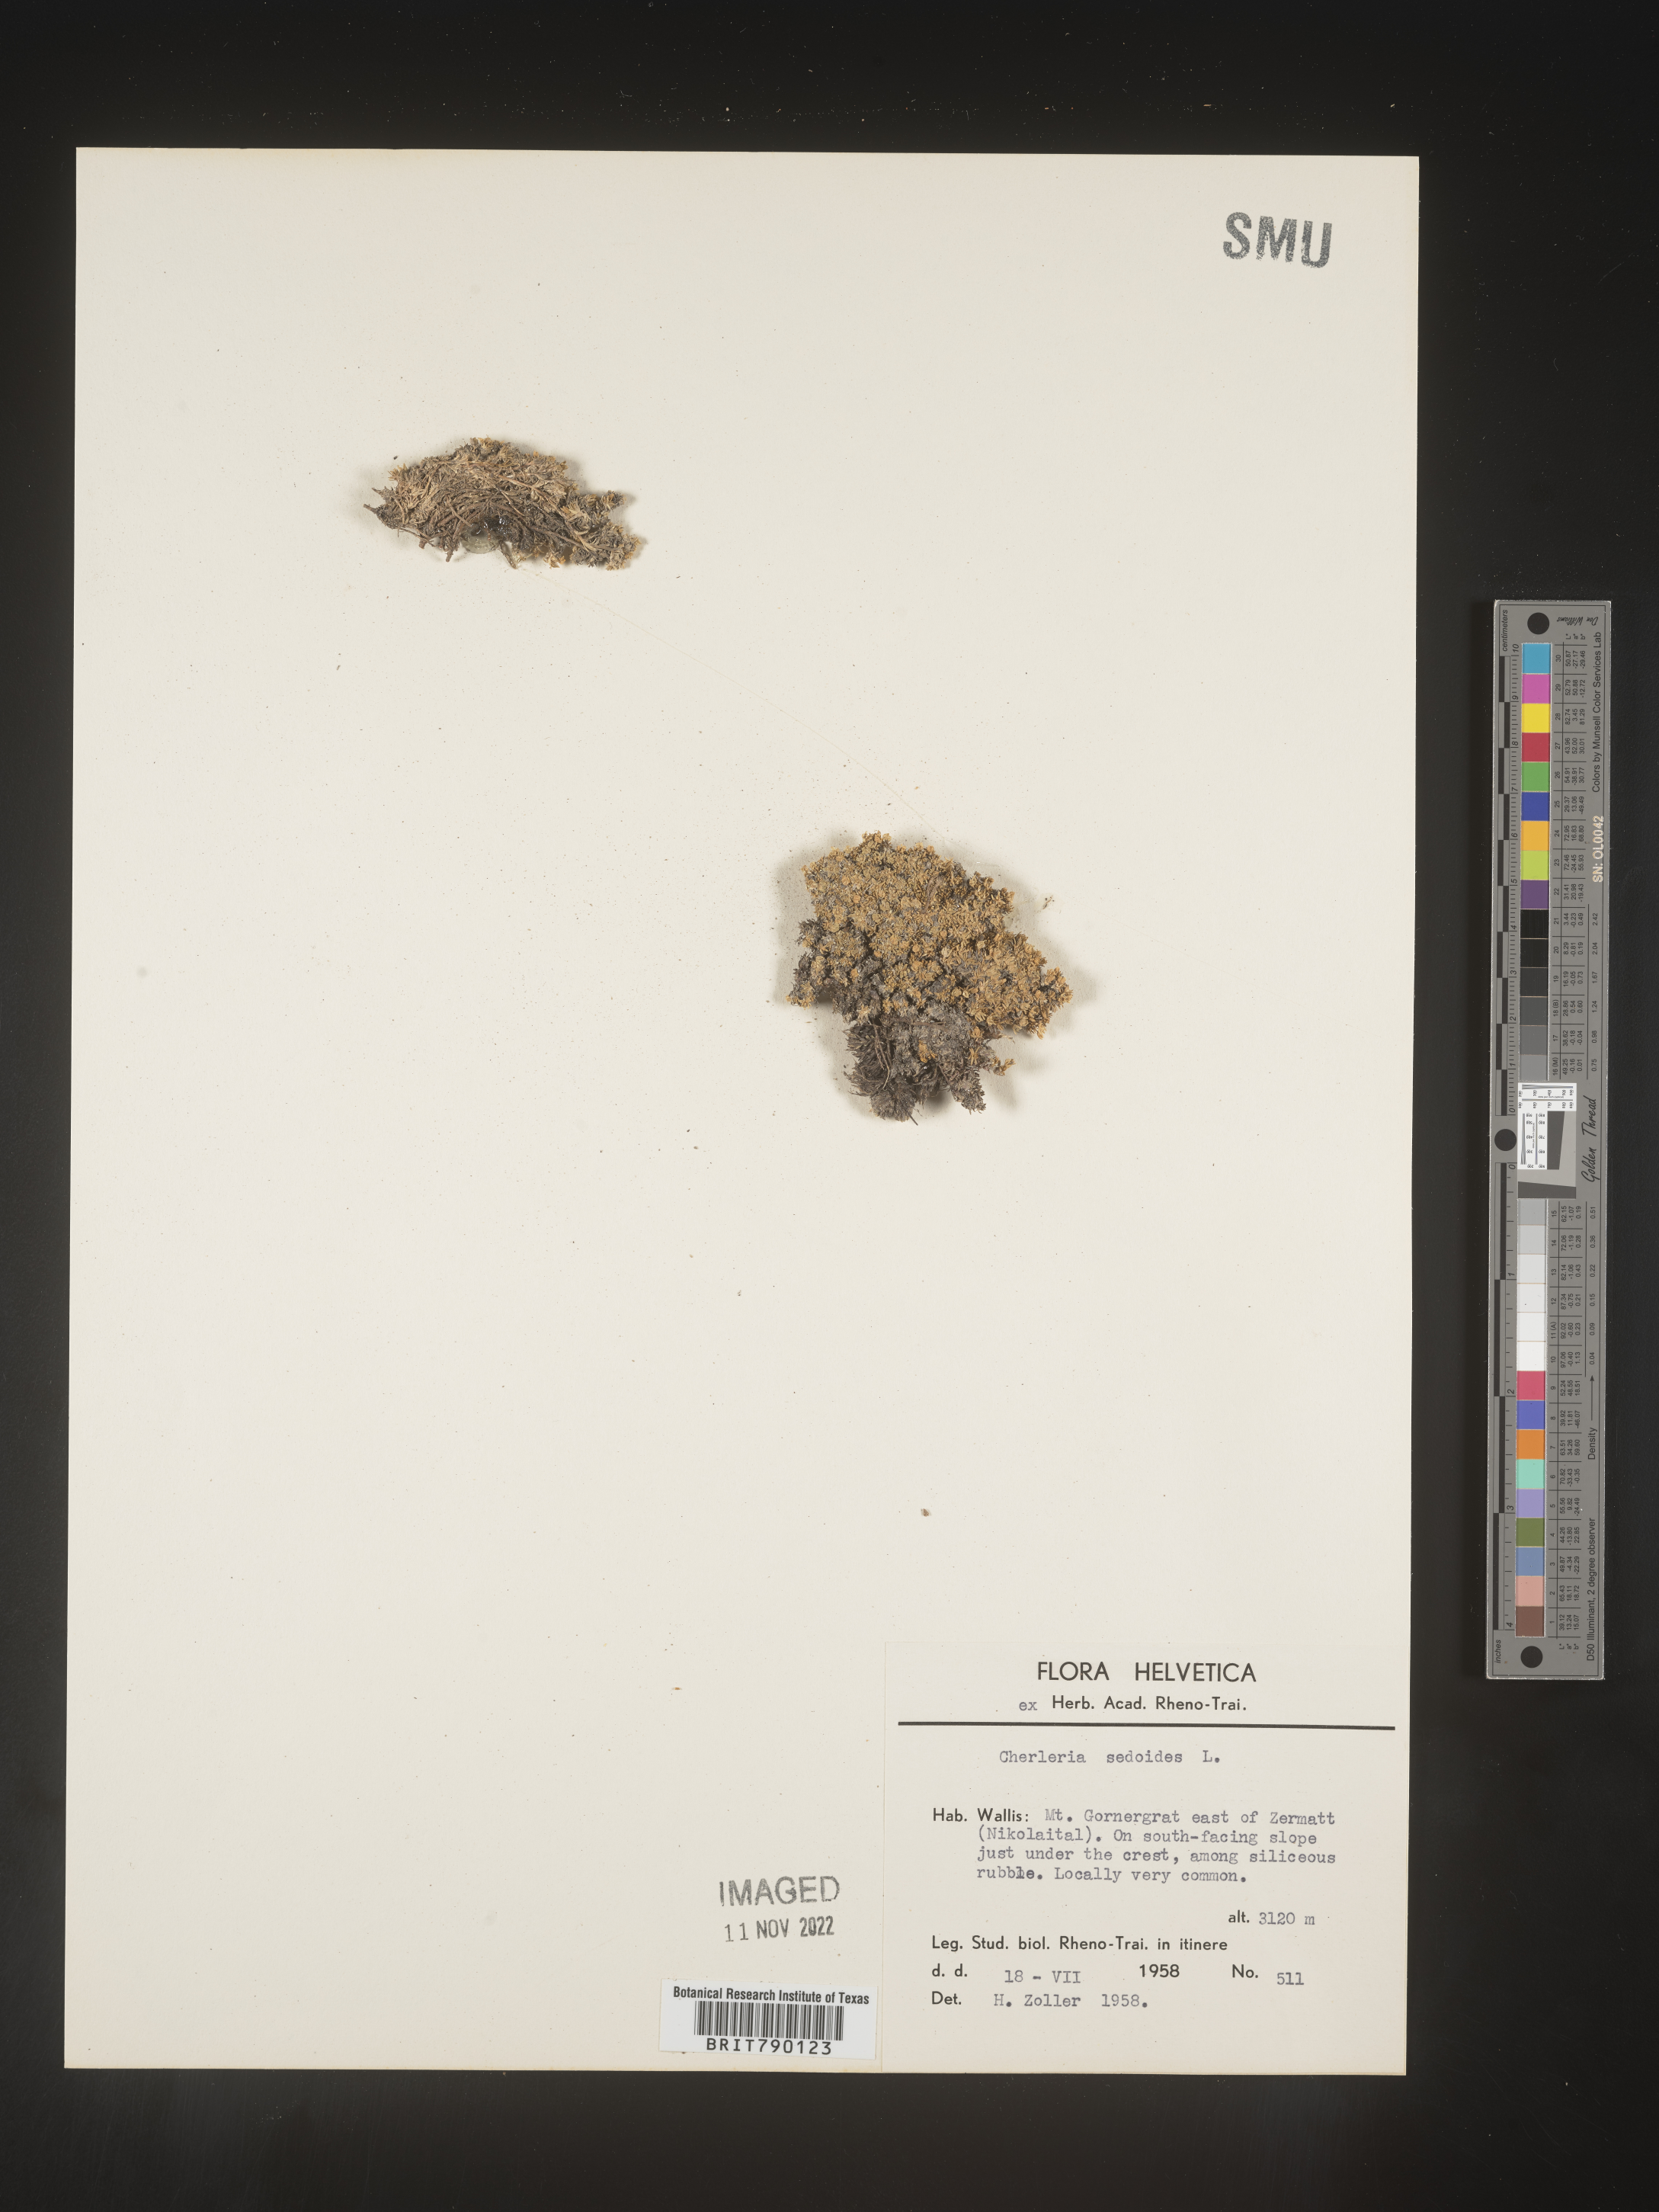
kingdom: Plantae
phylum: Tracheophyta
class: Magnoliopsida
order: Caryophyllales
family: Caryophyllaceae
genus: Cherleria
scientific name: Cherleria
